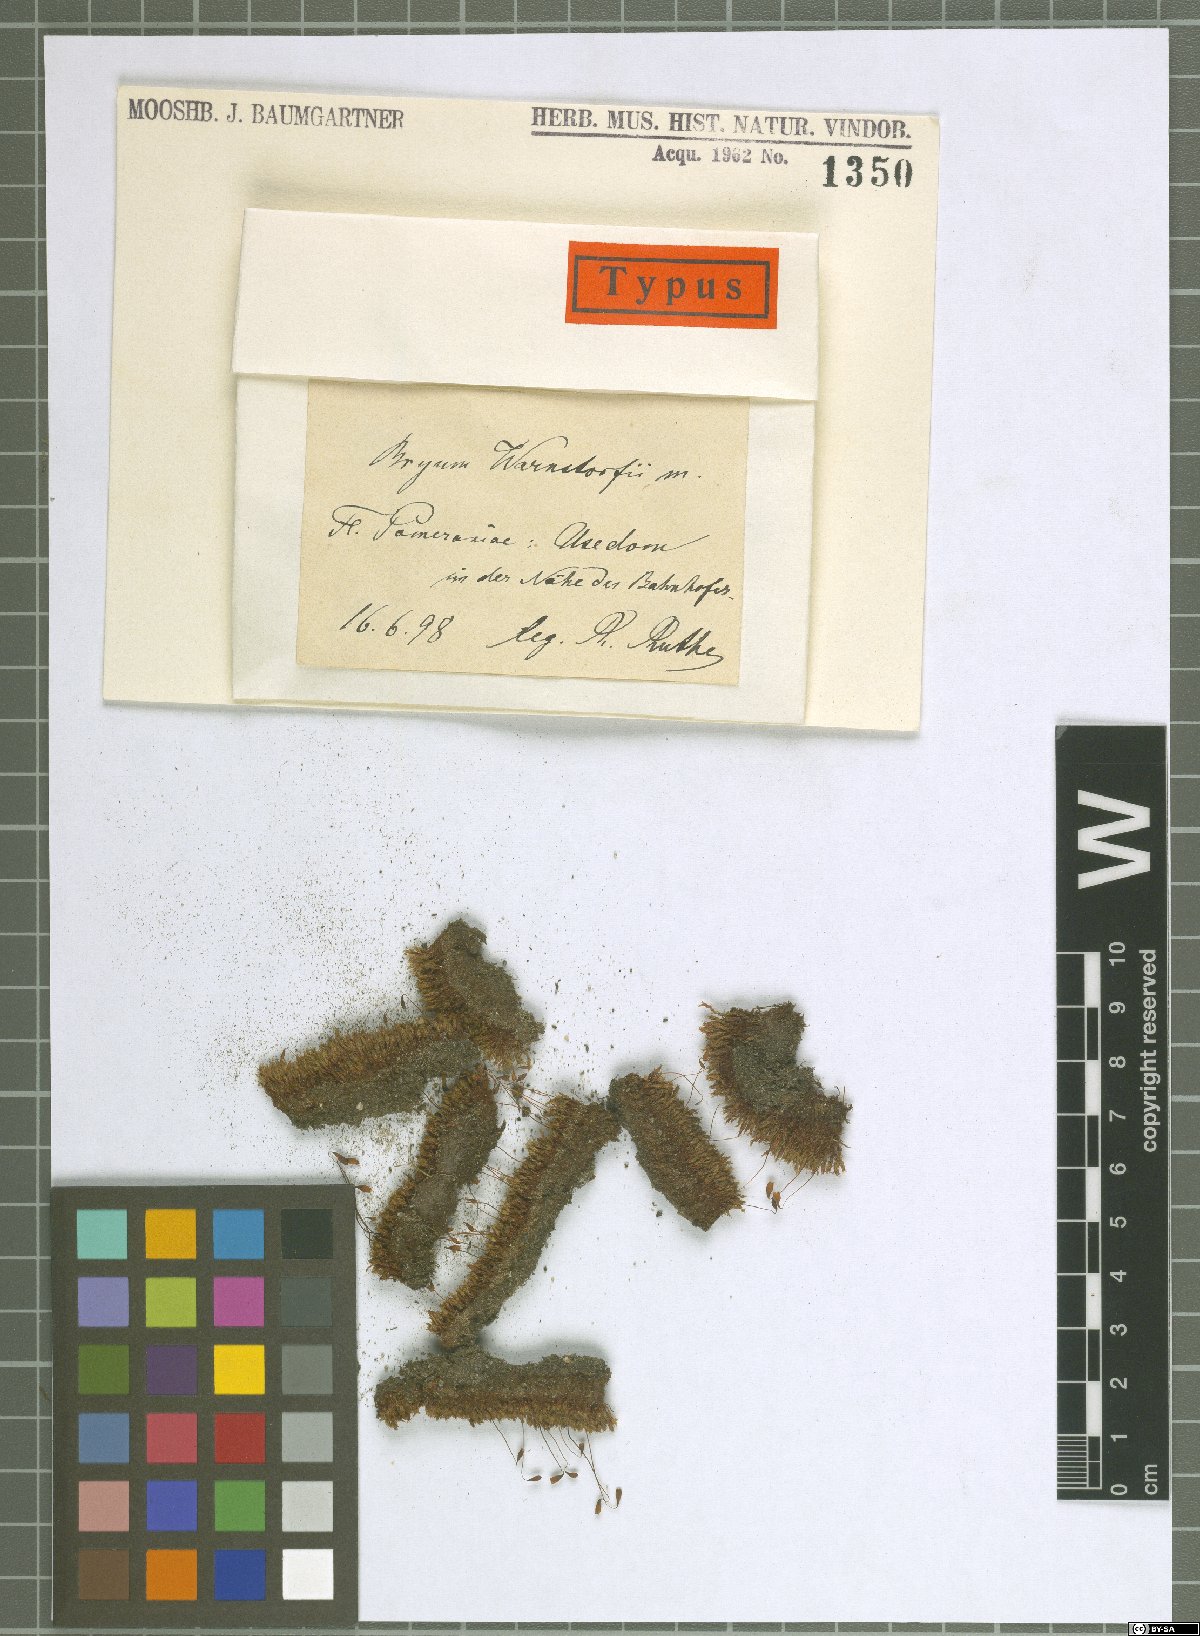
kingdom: Plantae
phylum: Bryophyta
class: Bryopsida
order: Bryales
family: Bryaceae
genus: Ptychostomum
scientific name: Ptychostomum pallescens
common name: Tall-clustered thread-moss
